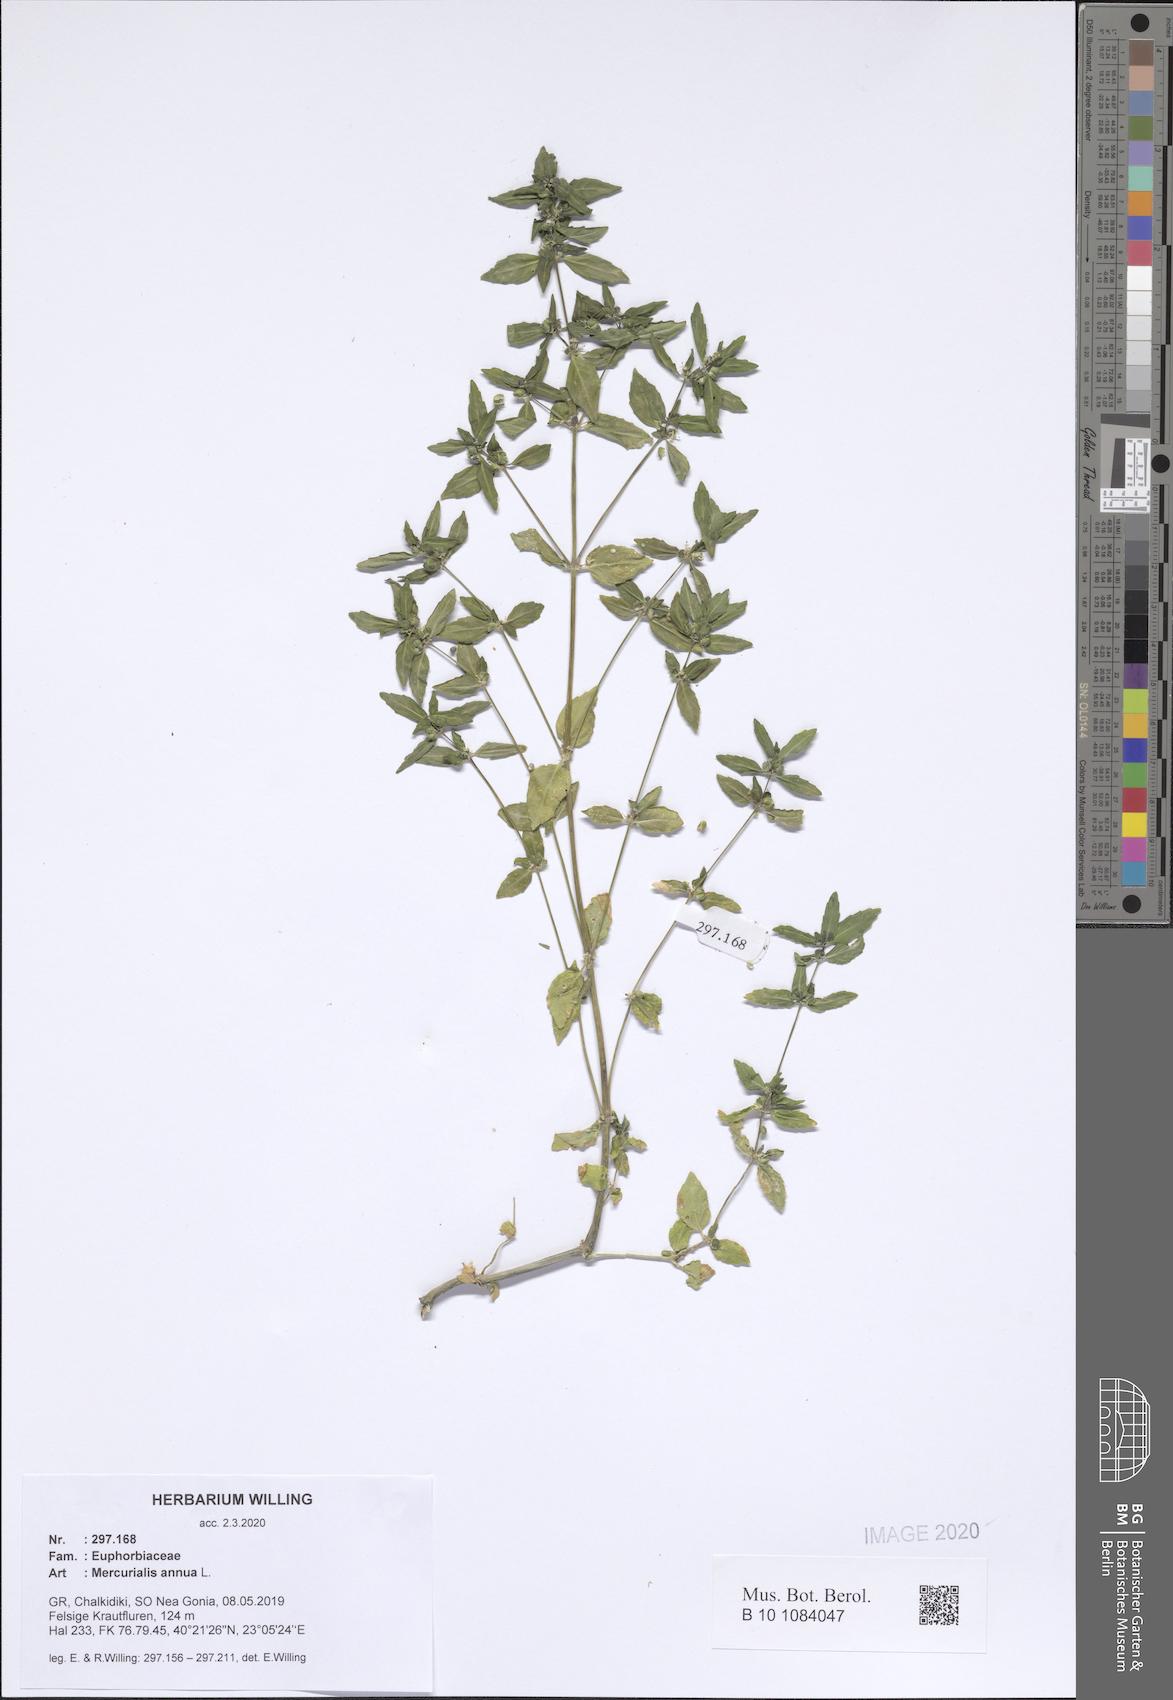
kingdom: Plantae
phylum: Tracheophyta
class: Magnoliopsida
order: Malpighiales
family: Euphorbiaceae
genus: Mercurialis
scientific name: Mercurialis annua
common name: Annual mercury
